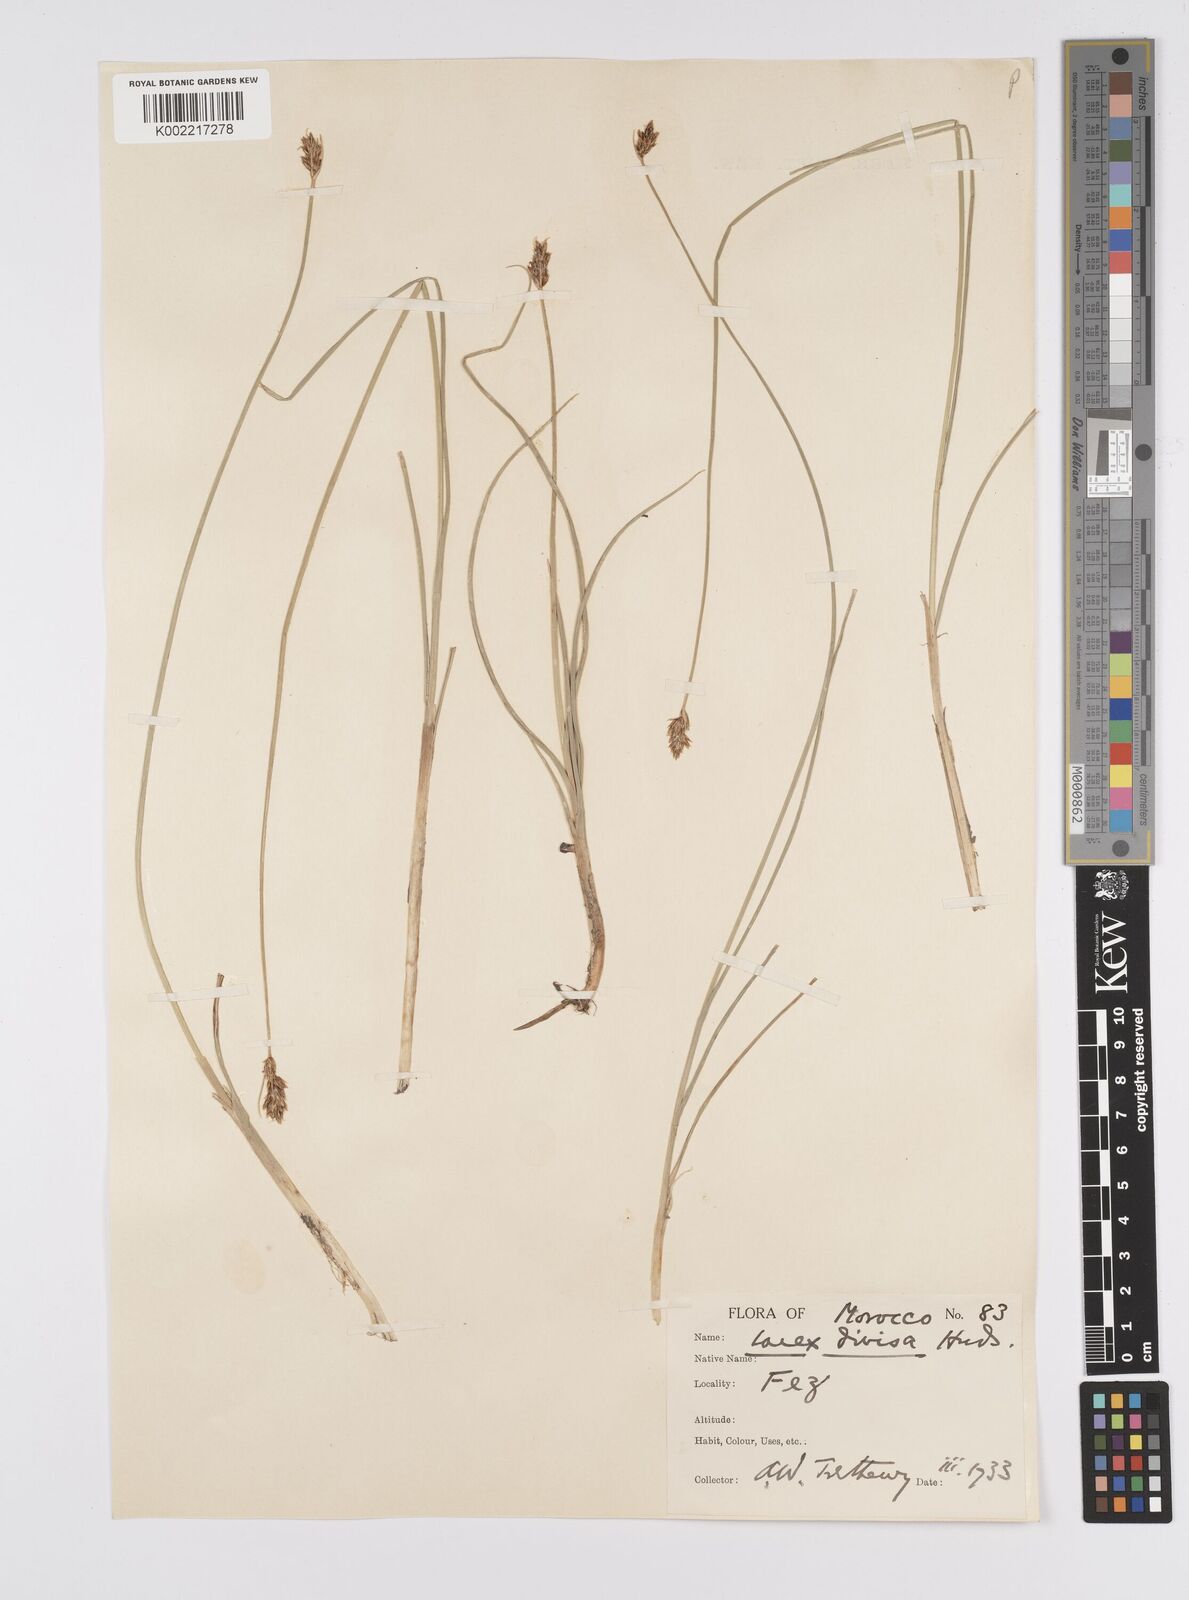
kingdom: Plantae
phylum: Tracheophyta
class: Liliopsida
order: Poales
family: Cyperaceae
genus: Carex
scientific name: Carex divisa
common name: Divided sedge
